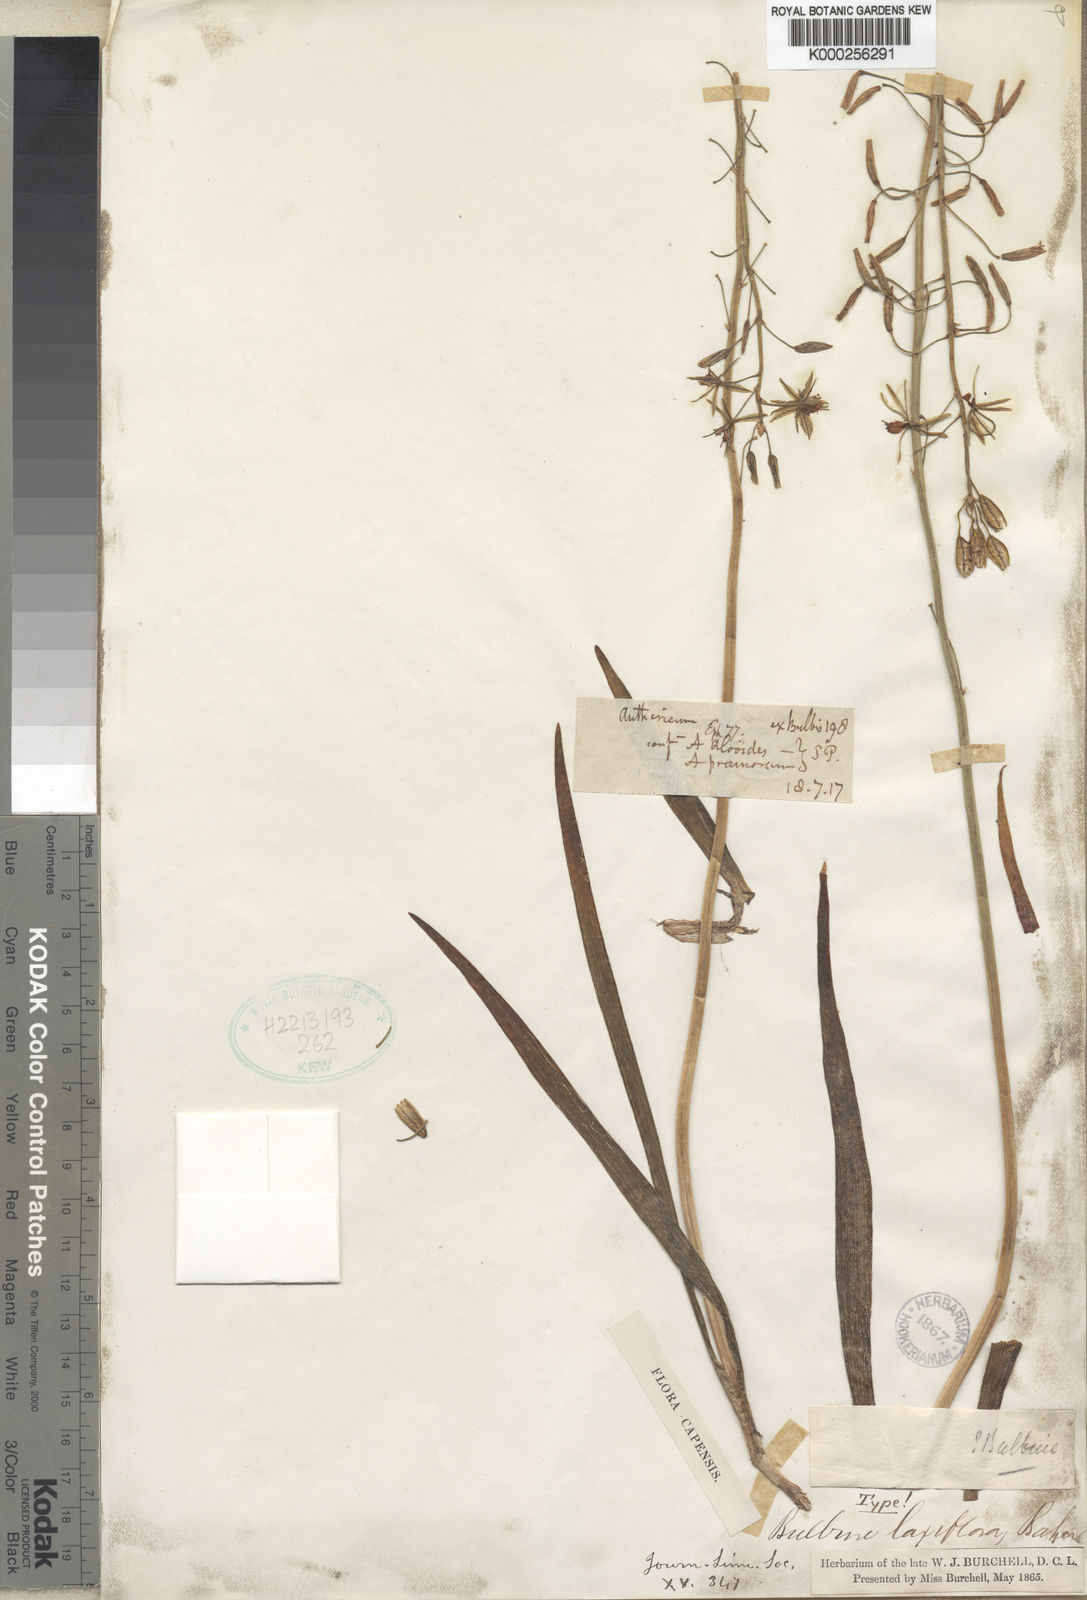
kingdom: Plantae
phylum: Tracheophyta
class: Liliopsida
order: Asparagales
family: Asphodelaceae
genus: Bulbine
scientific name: Bulbine praemorsa
